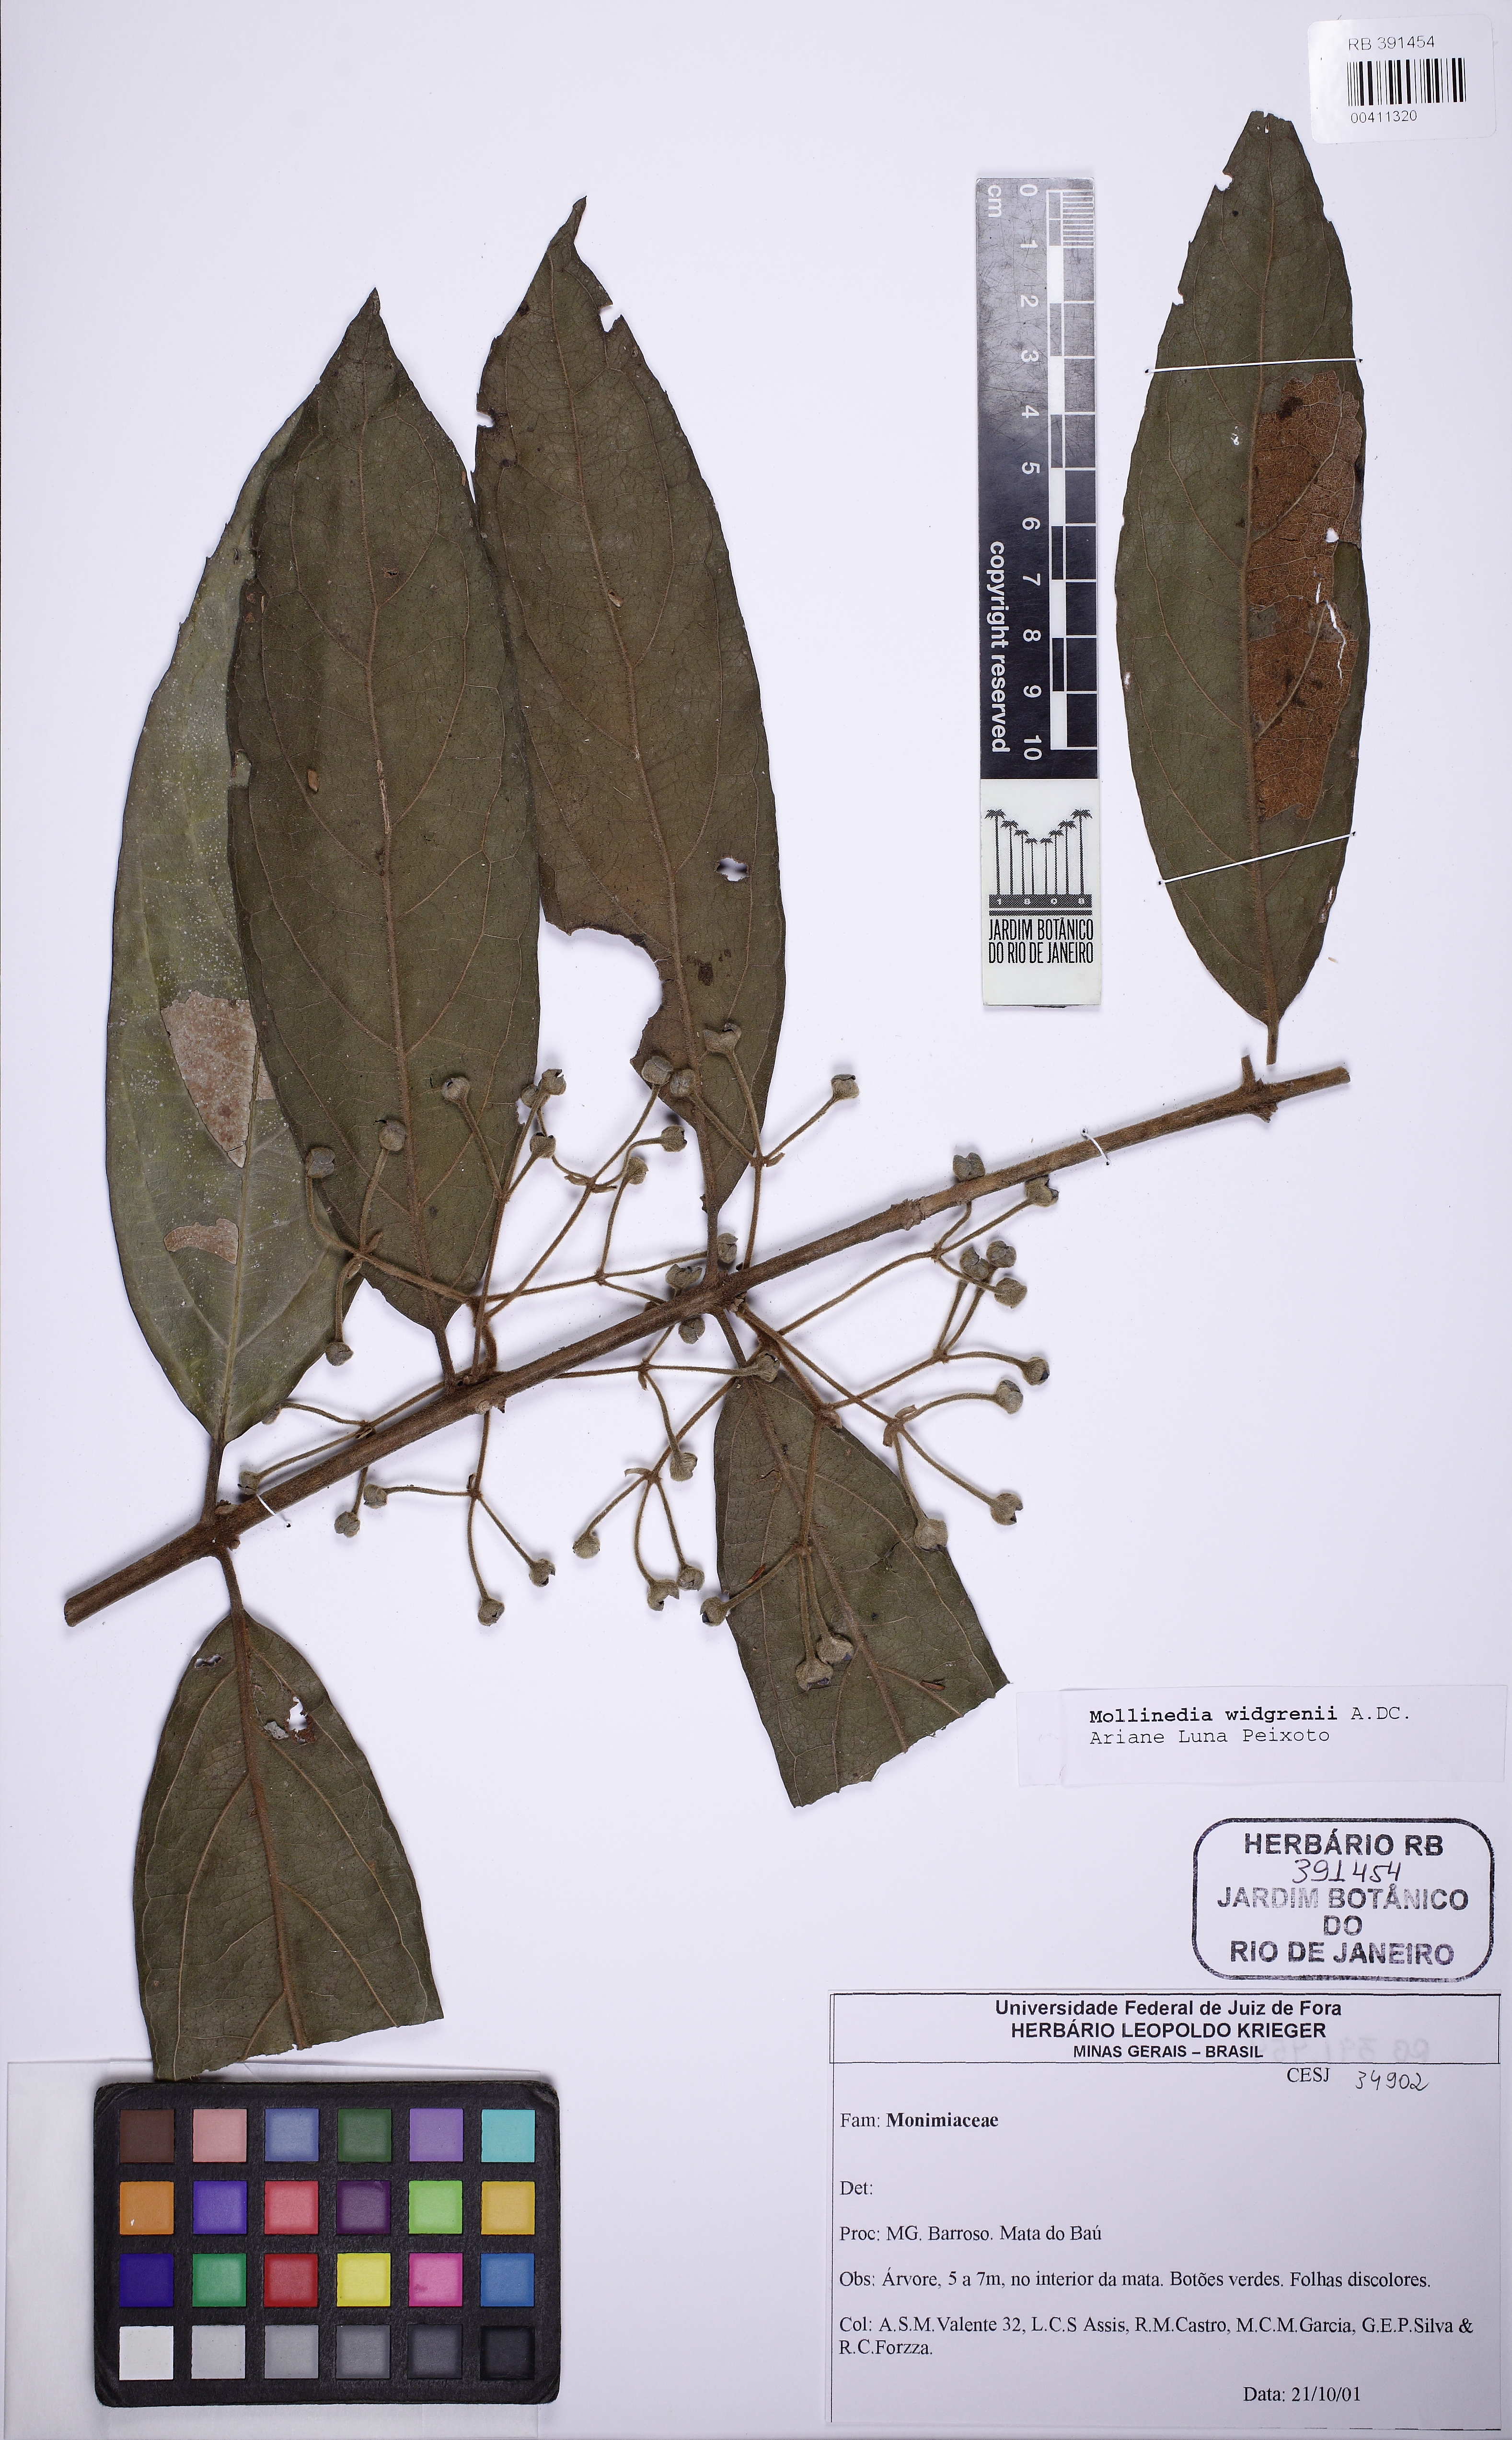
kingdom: Plantae
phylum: Tracheophyta
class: Magnoliopsida
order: Laurales
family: Monimiaceae
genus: Mollinedia
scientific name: Mollinedia widgrenii
